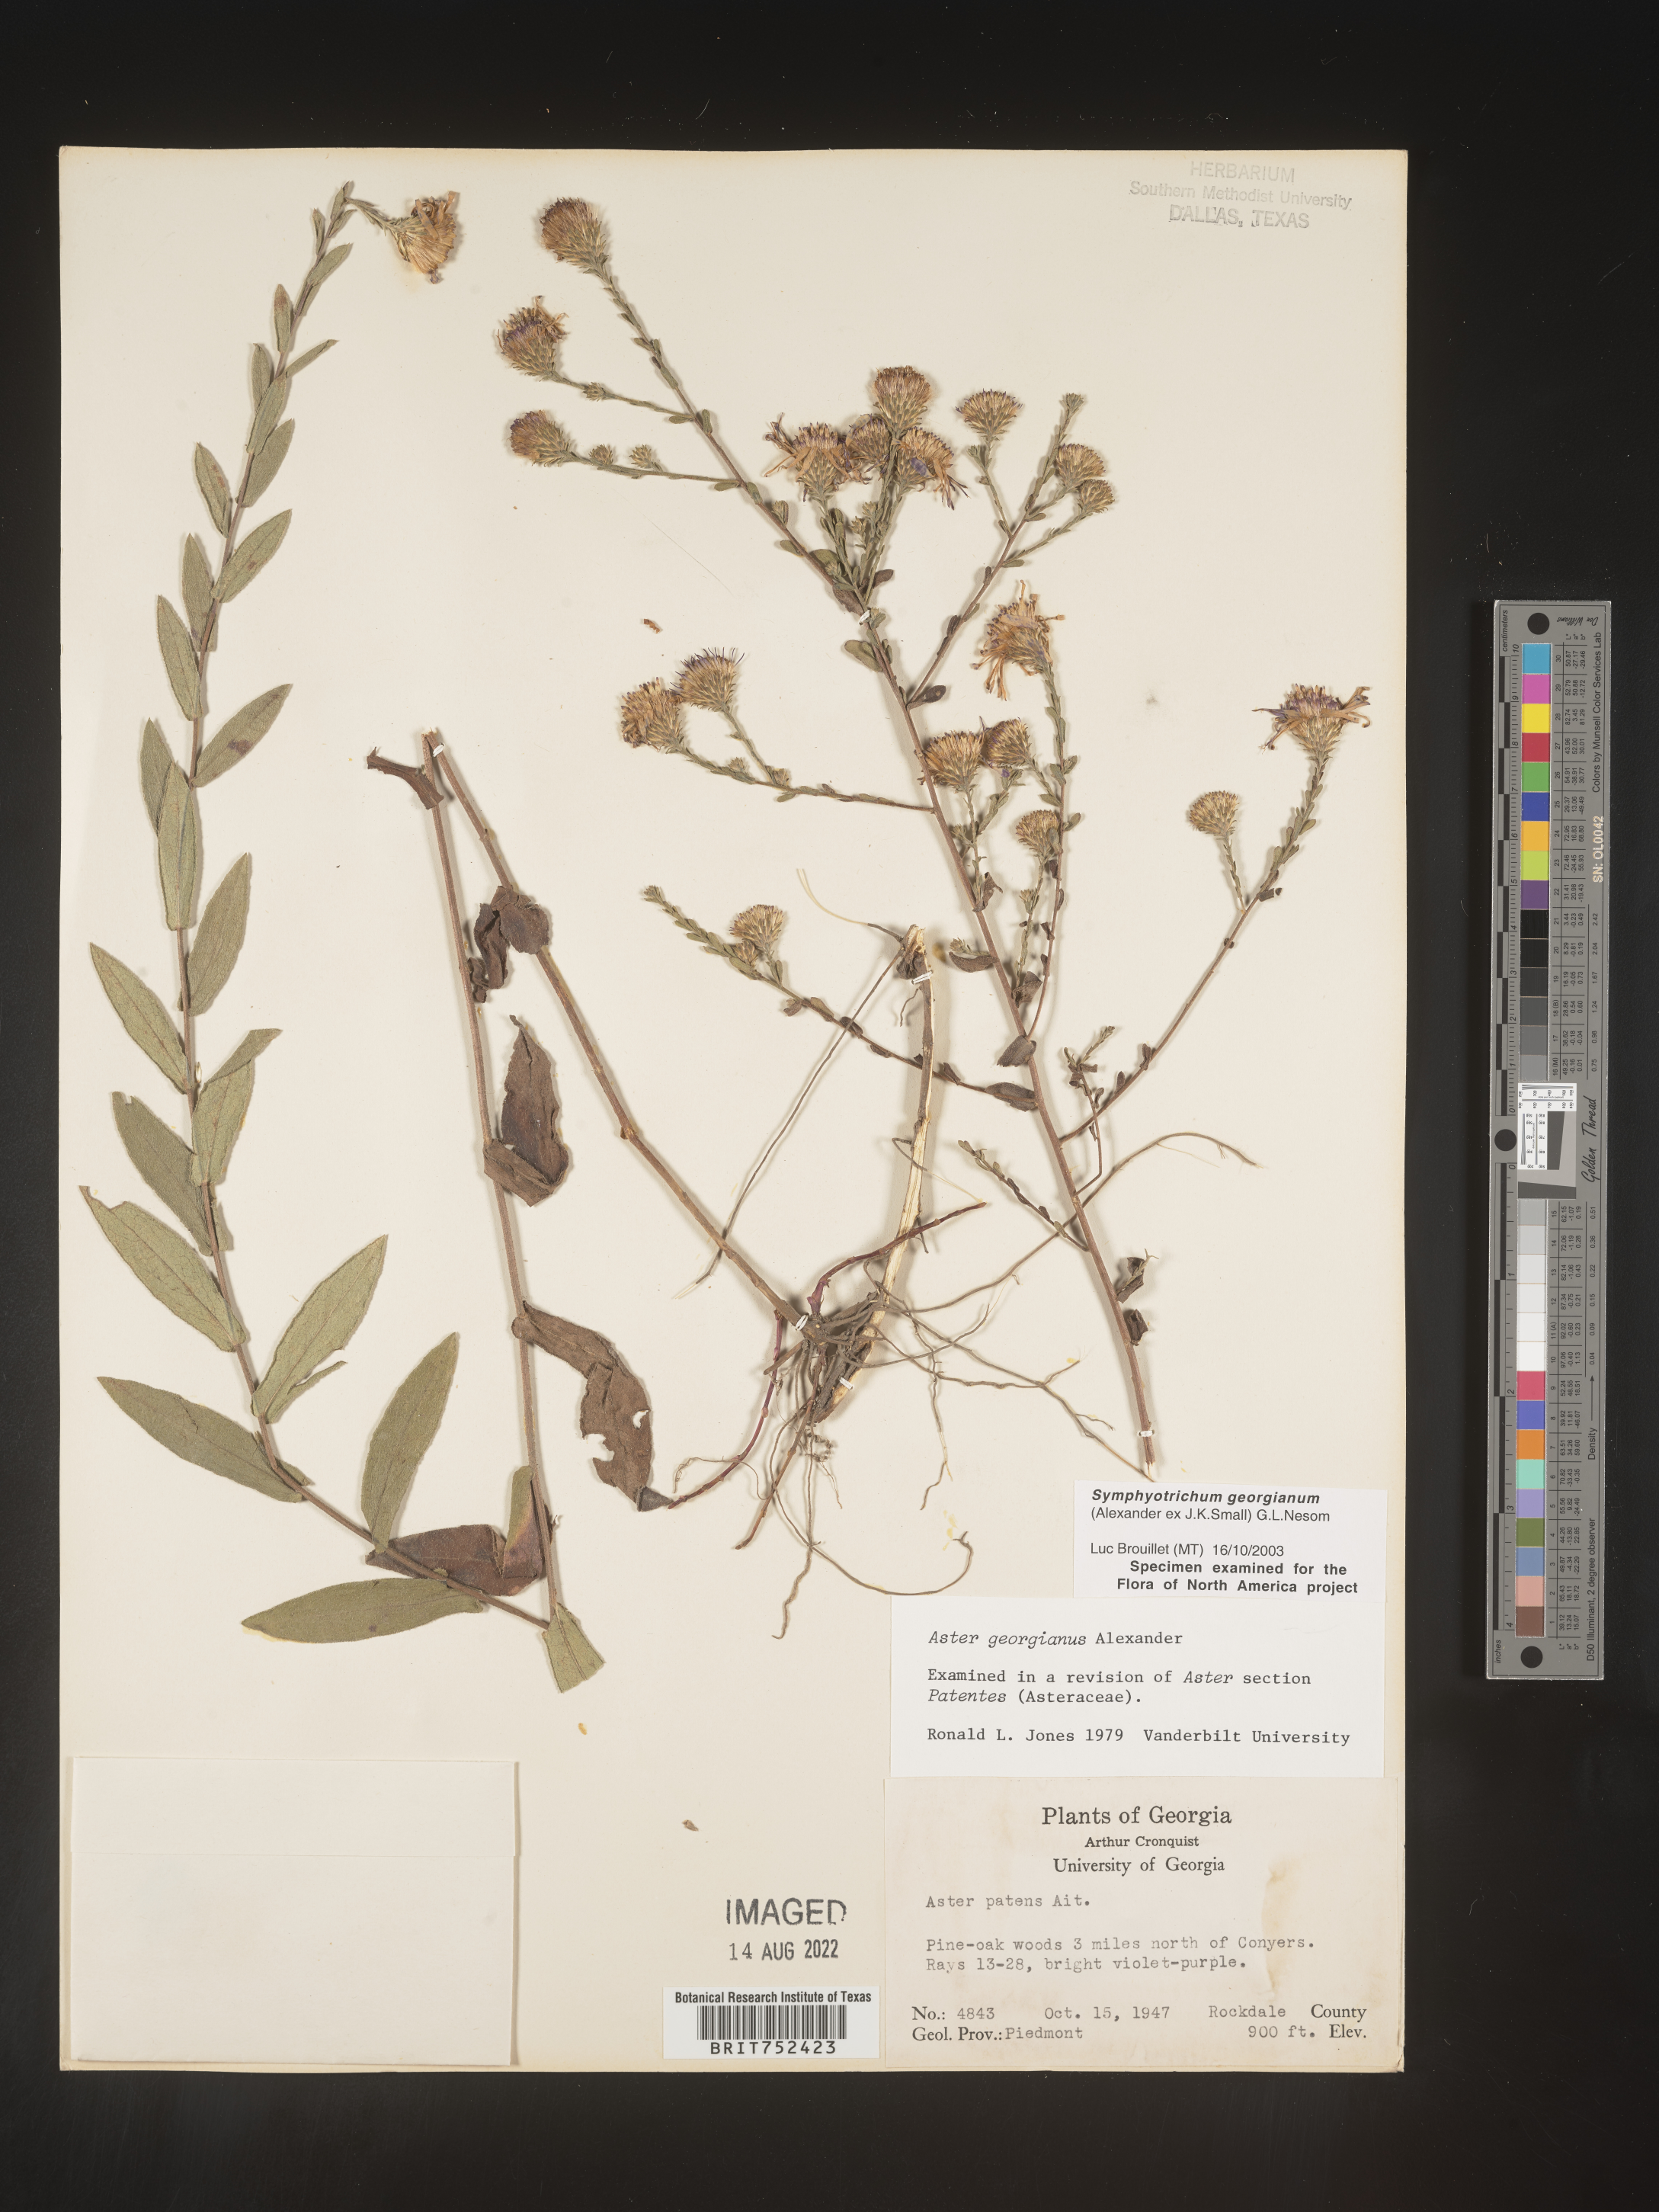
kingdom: Plantae
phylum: Tracheophyta
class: Magnoliopsida
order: Asterales
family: Asteraceae
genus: Symphyotrichum
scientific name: Symphyotrichum georgianum
